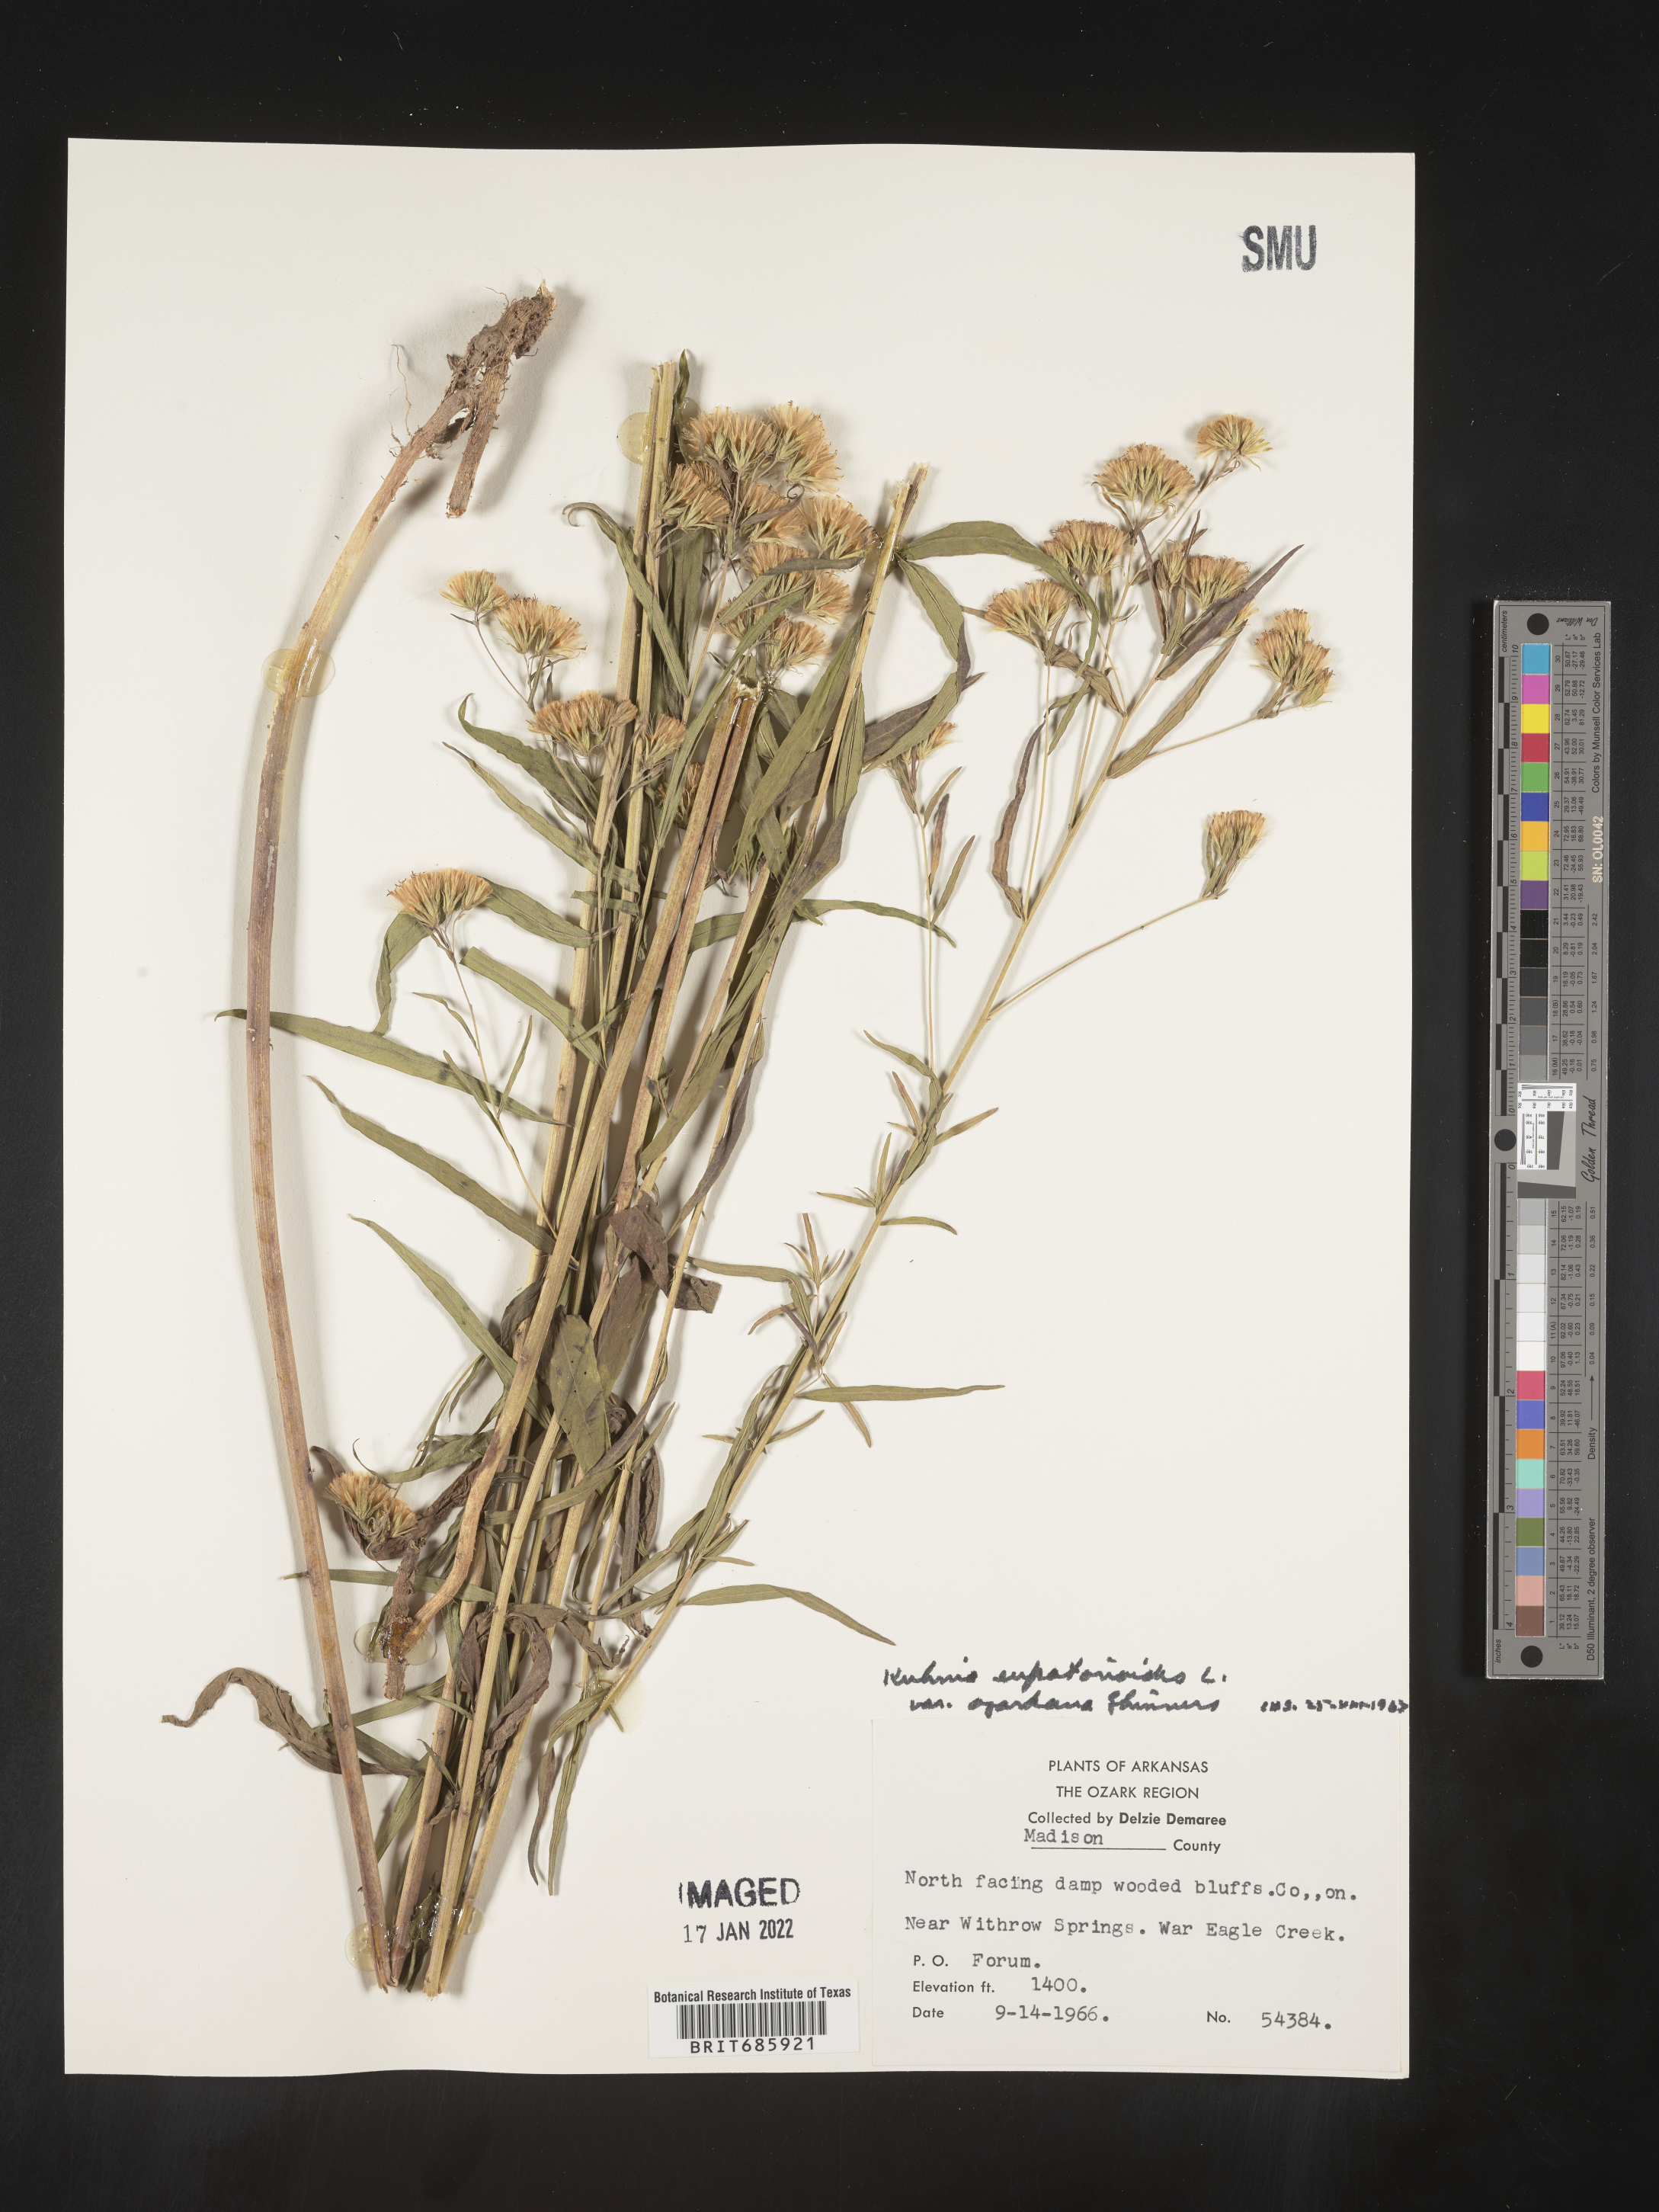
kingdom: Plantae
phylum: Tracheophyta
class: Magnoliopsida
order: Asterales
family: Asteraceae
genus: Brickellia
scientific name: Brickellia ozarkana
